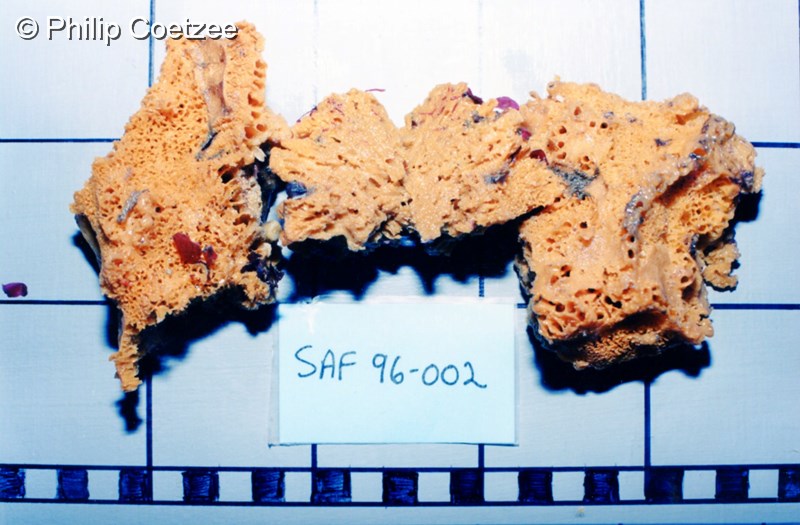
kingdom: Animalia
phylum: Porifera
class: Demospongiae
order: Poecilosclerida
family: Tedaniidae
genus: Tedania
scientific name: Tedania tubulifera
